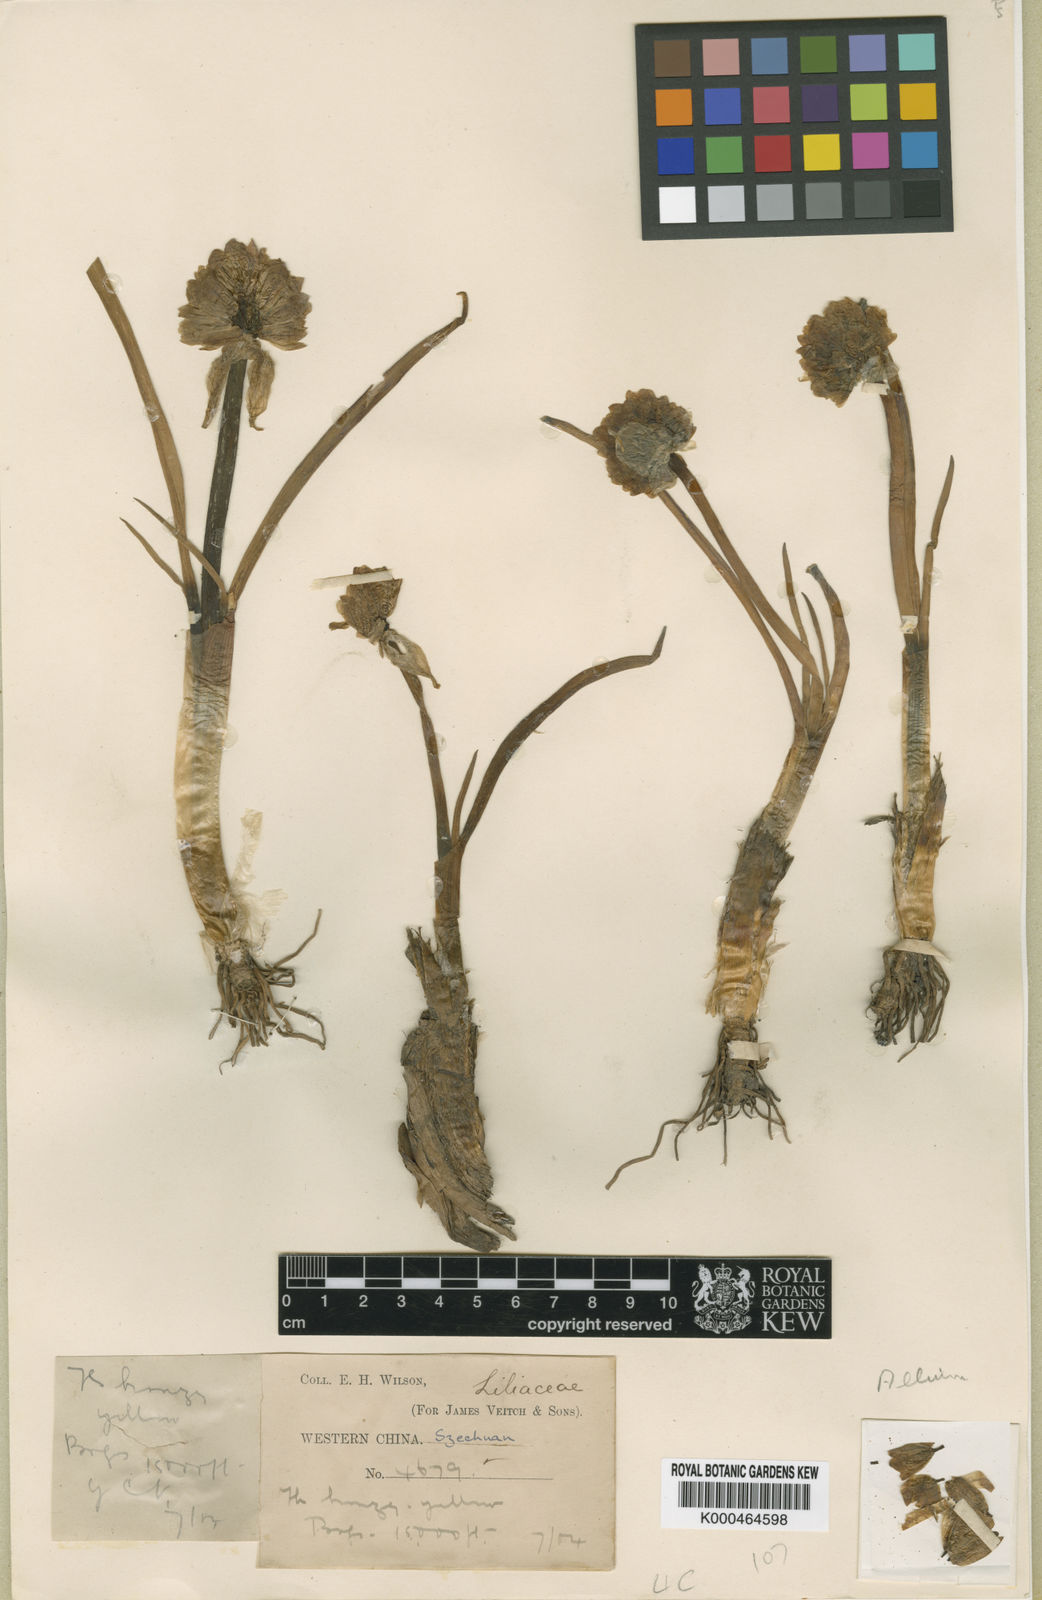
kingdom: Plantae
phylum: Tracheophyta
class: Liliopsida
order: Asparagales
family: Amaryllidaceae
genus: Allium
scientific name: Allium atrosanguineum
